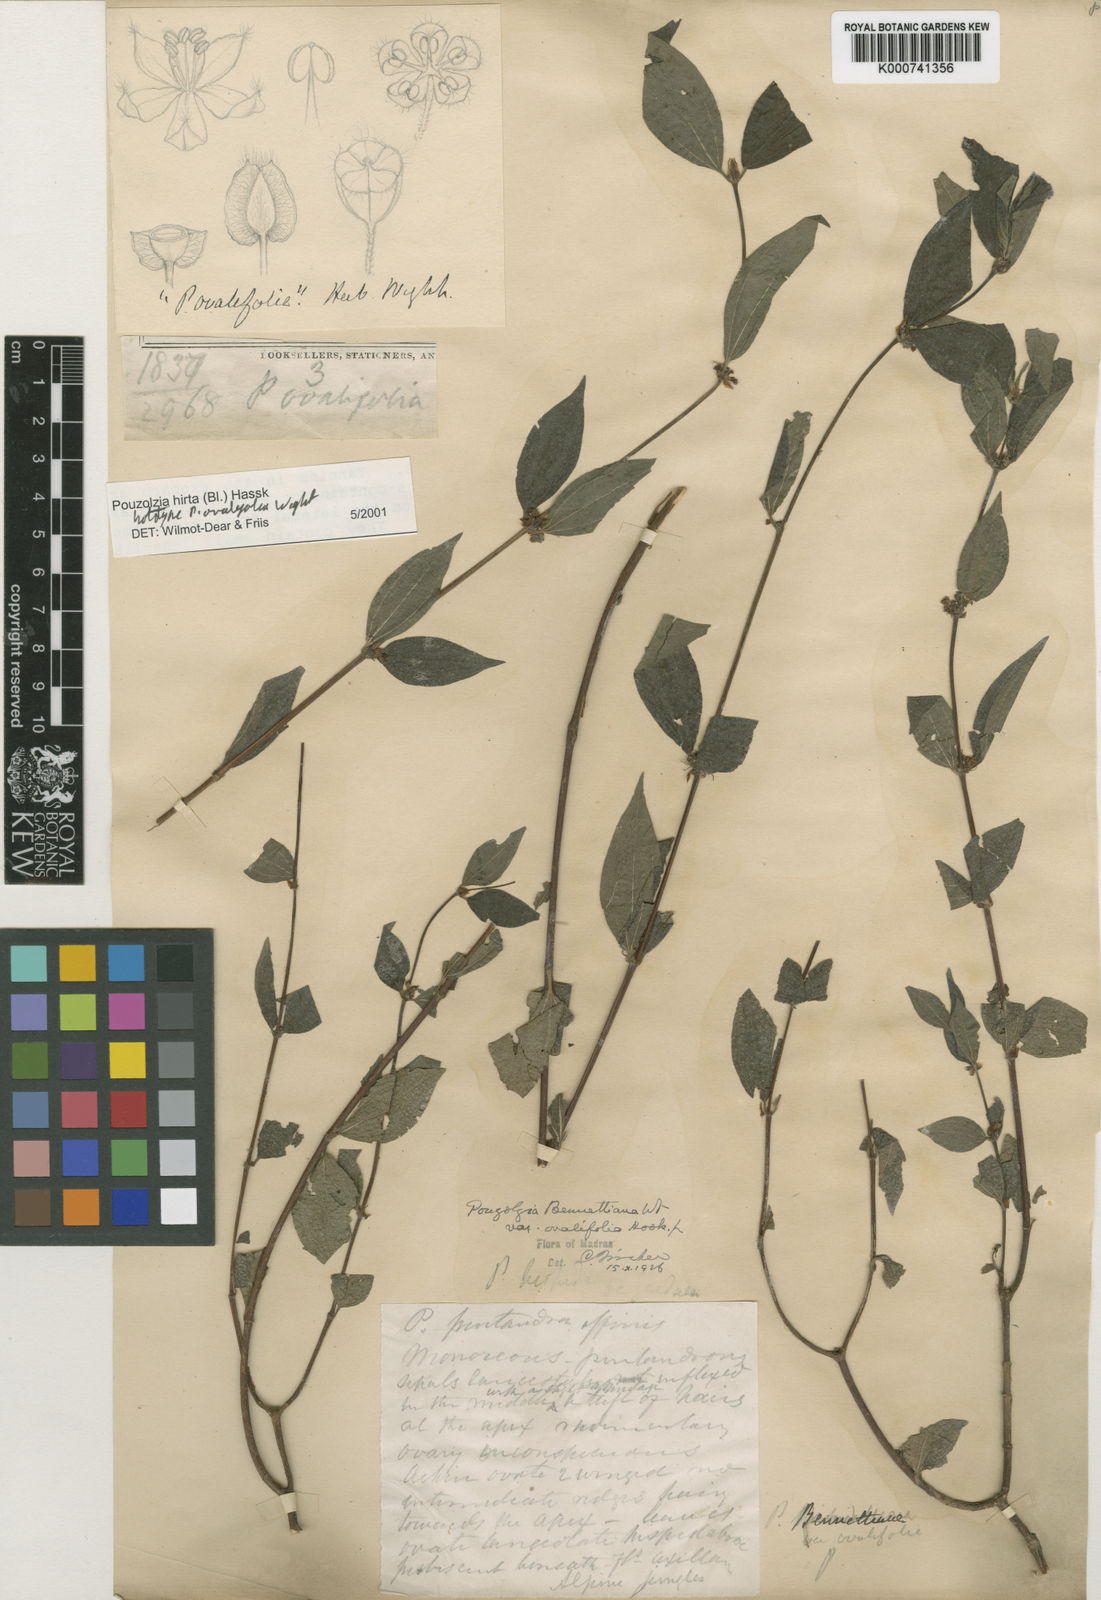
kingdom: Plantae
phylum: Tracheophyta
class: Magnoliopsida
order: Rosales
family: Urticaceae
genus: Gonostegia
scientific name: Gonostegia triandra
